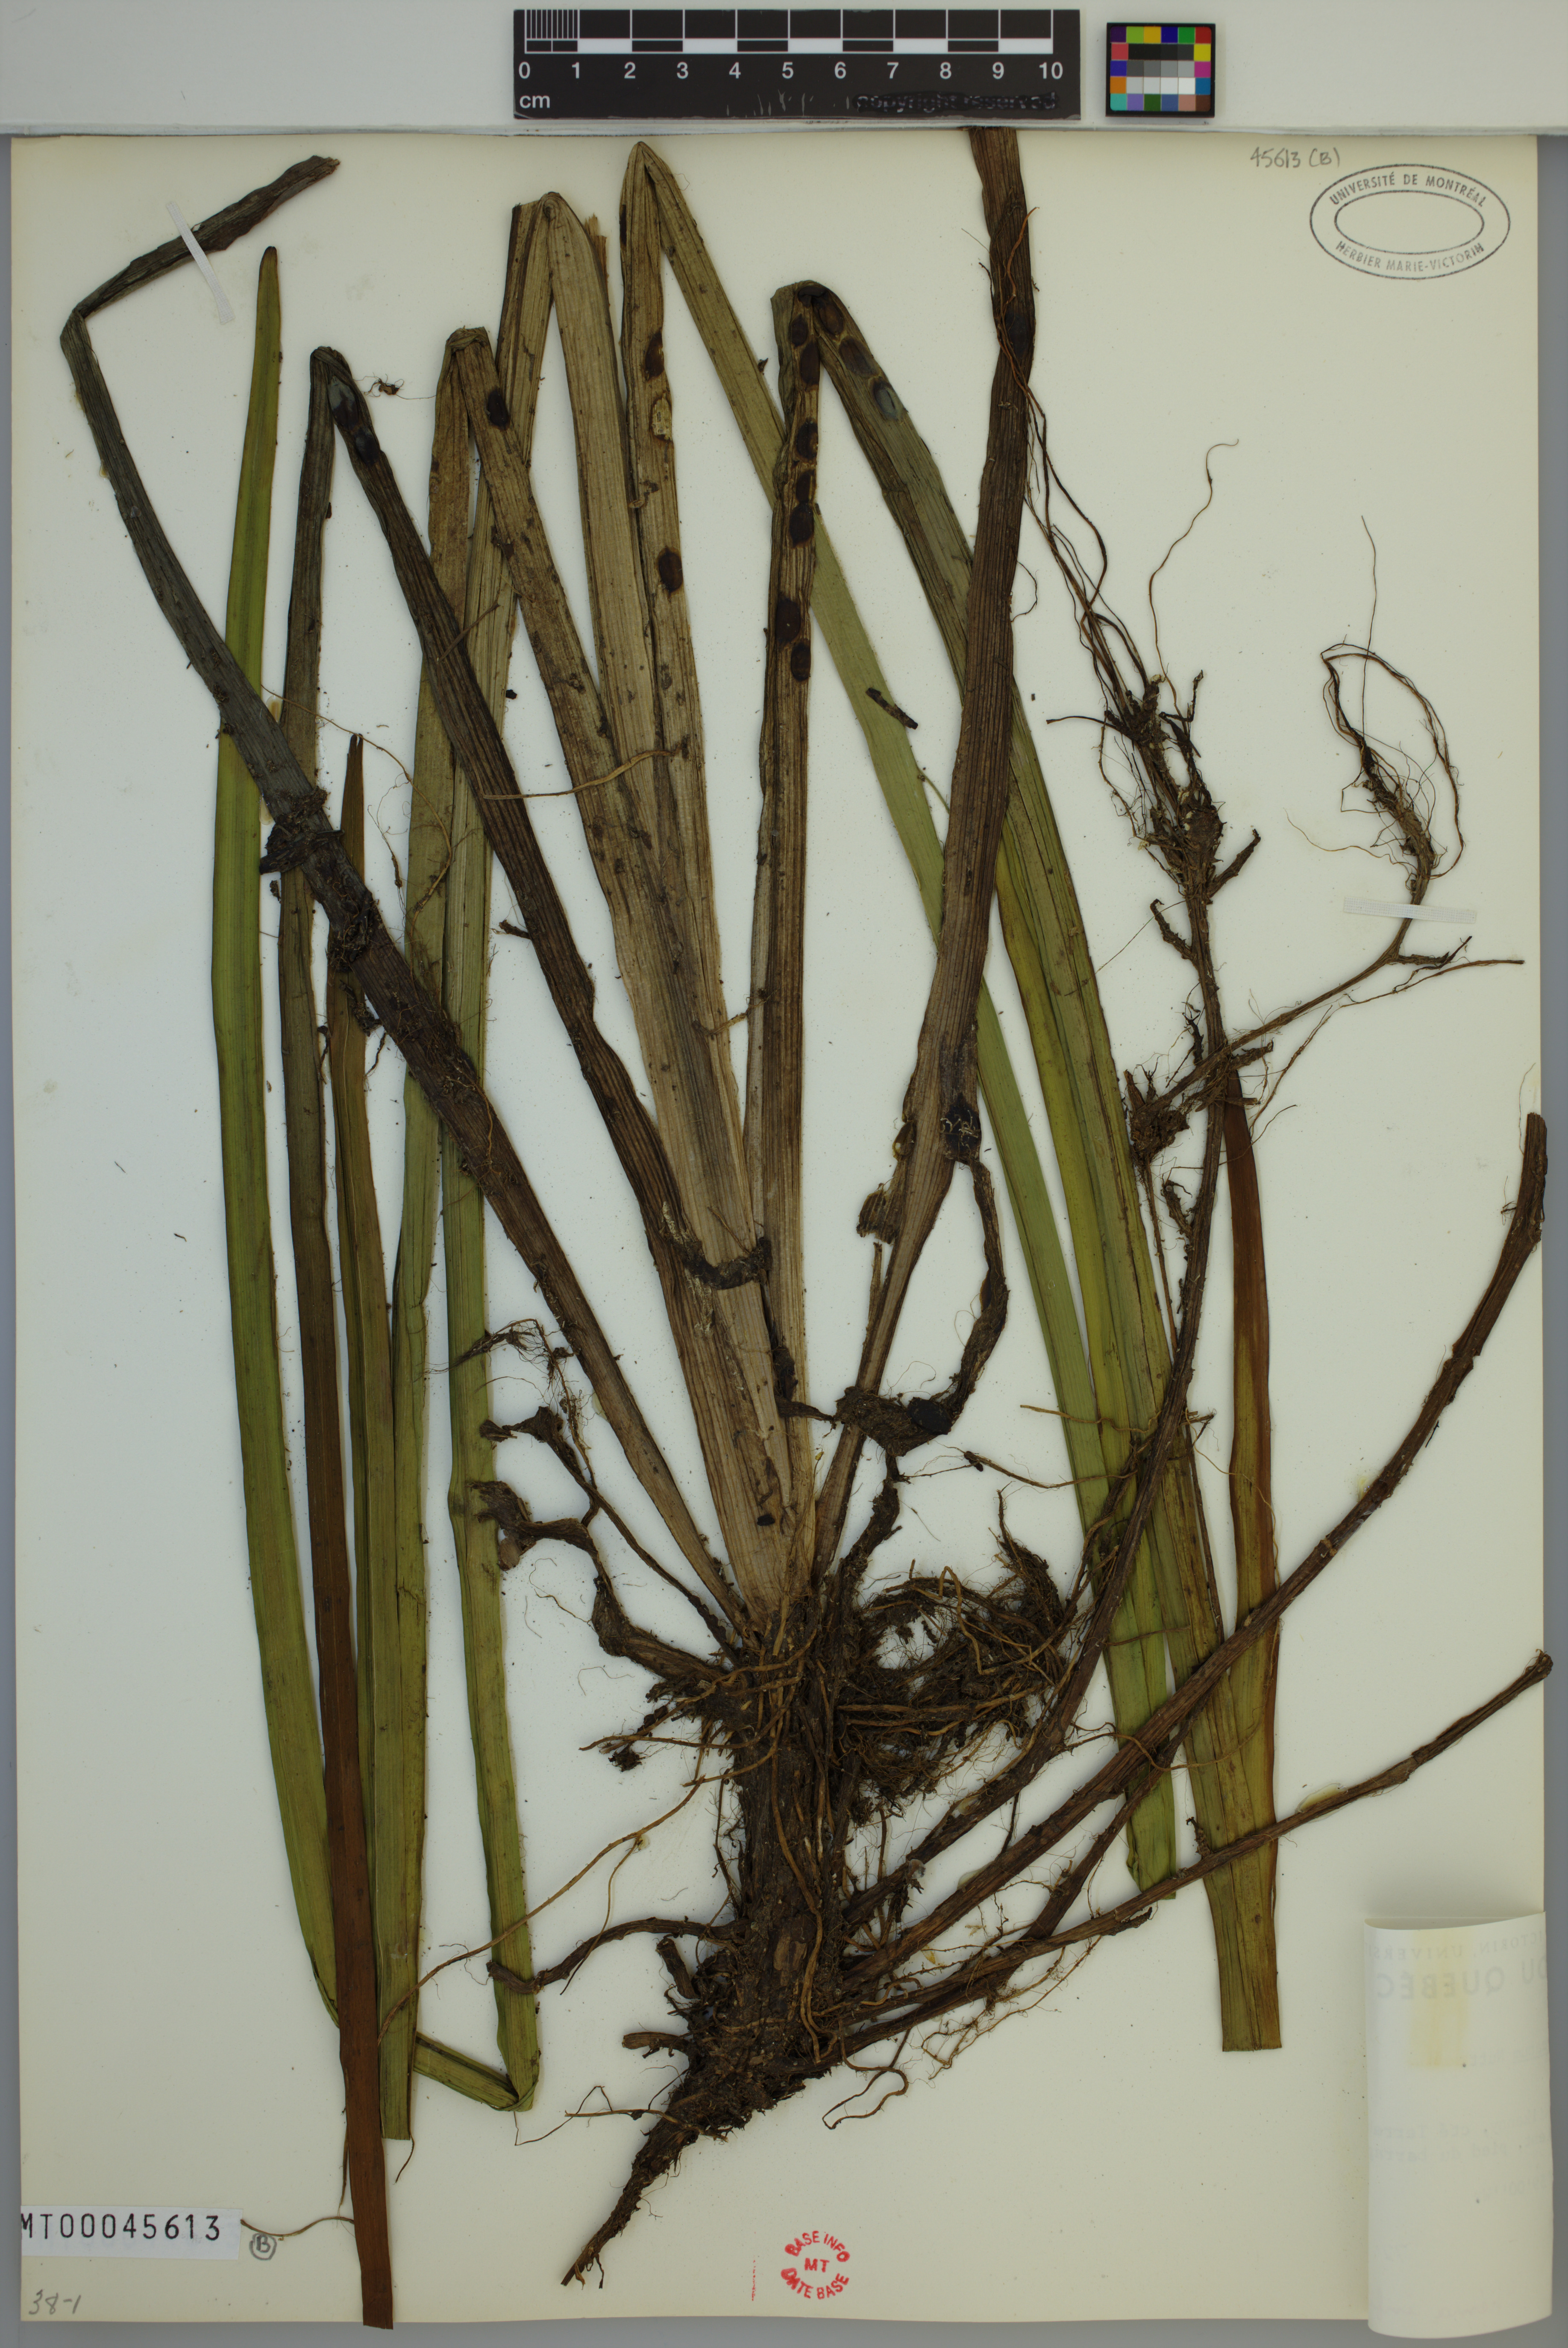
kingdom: Plantae
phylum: Tracheophyta
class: Liliopsida
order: Poales
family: Typhaceae
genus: Sparganium
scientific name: Sparganium americanum
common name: American burreed
